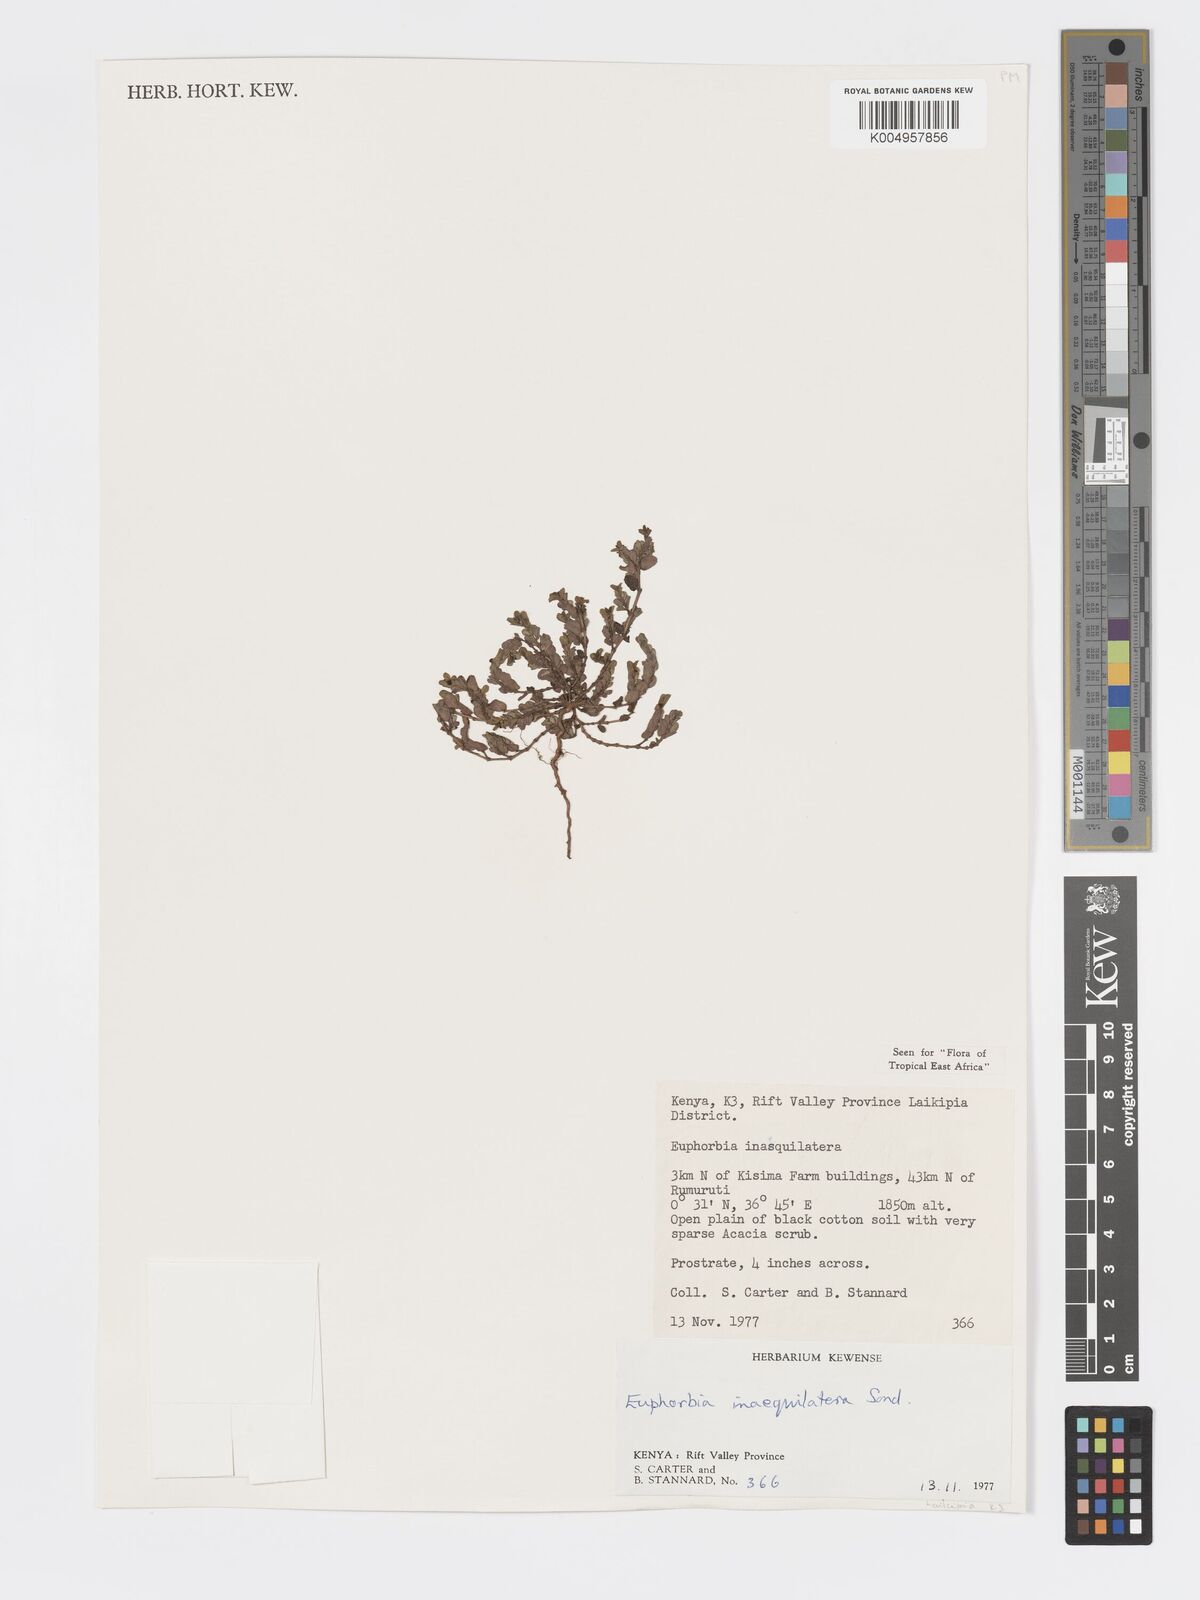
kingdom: Plantae
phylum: Tracheophyta
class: Magnoliopsida
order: Malpighiales
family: Euphorbiaceae
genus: Euphorbia
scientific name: Euphorbia inaequilatera
